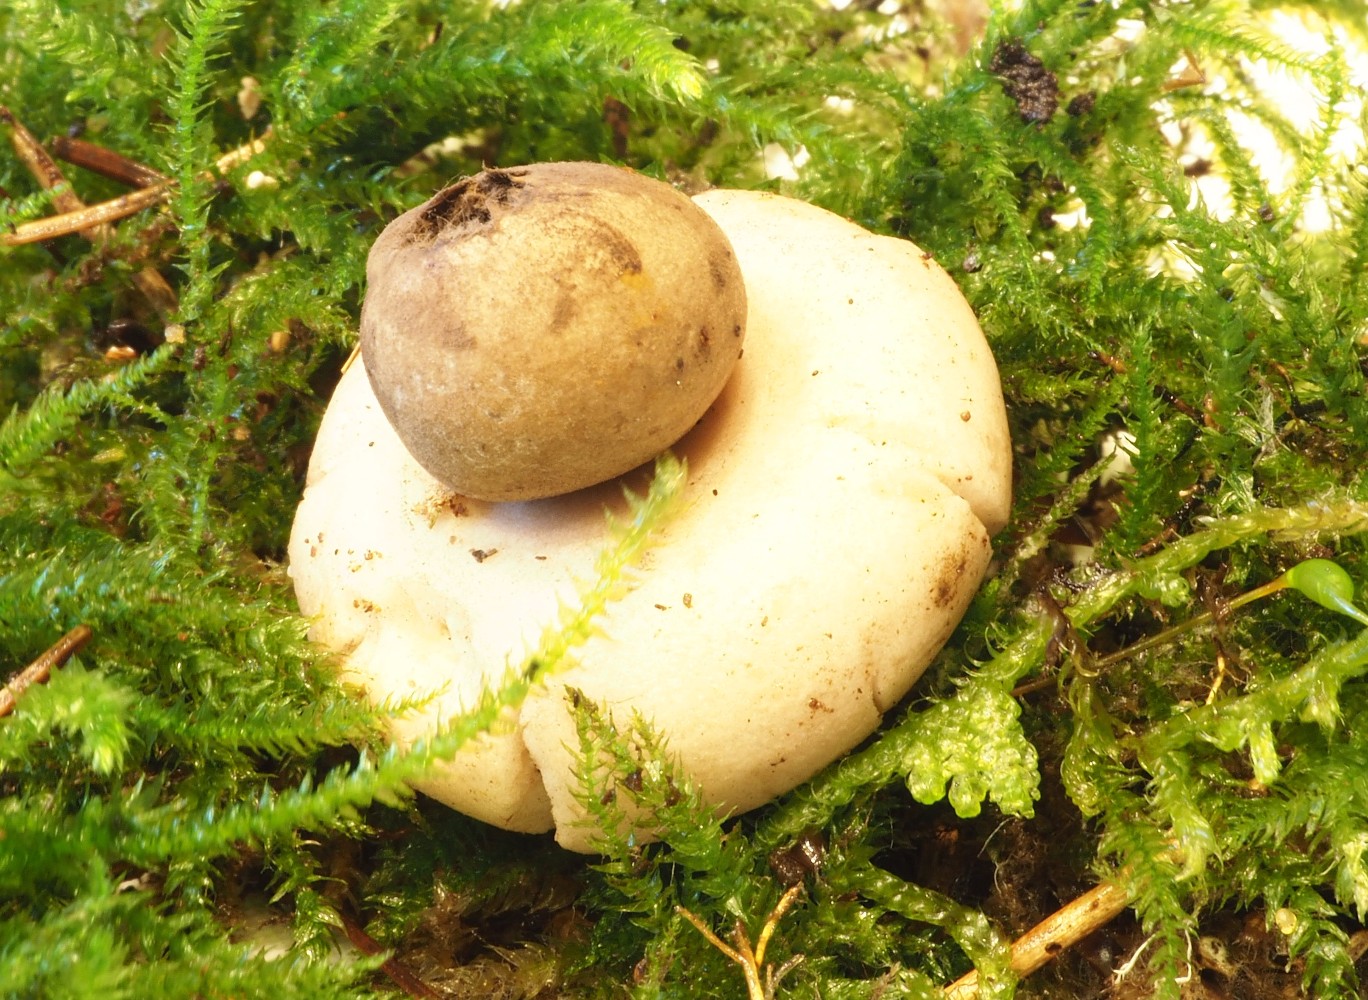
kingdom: Fungi
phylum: Basidiomycota
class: Agaricomycetes
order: Geastrales
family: Geastraceae
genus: Geastrum
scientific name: Geastrum fimbriatum
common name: frynset stjernebold
